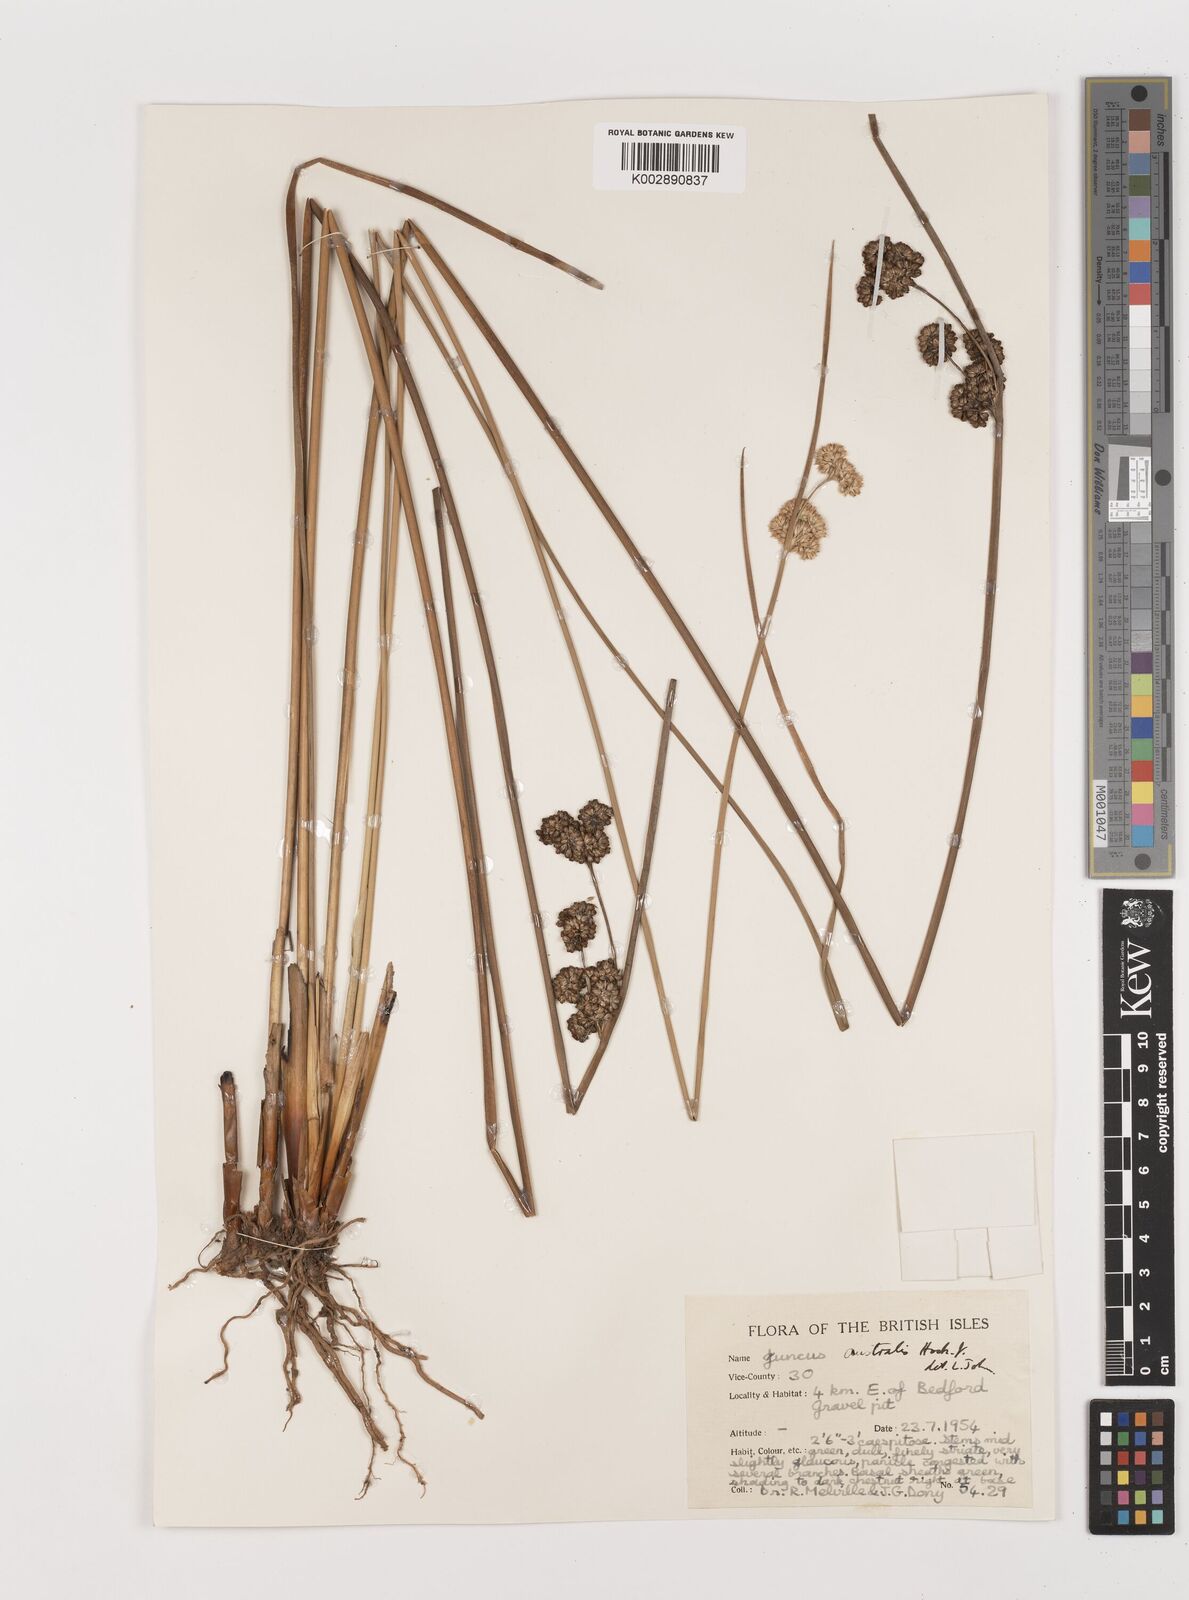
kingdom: Plantae
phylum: Tracheophyta
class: Liliopsida
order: Poales
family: Juncaceae
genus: Juncus
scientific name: Juncus australis
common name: Austral rush
